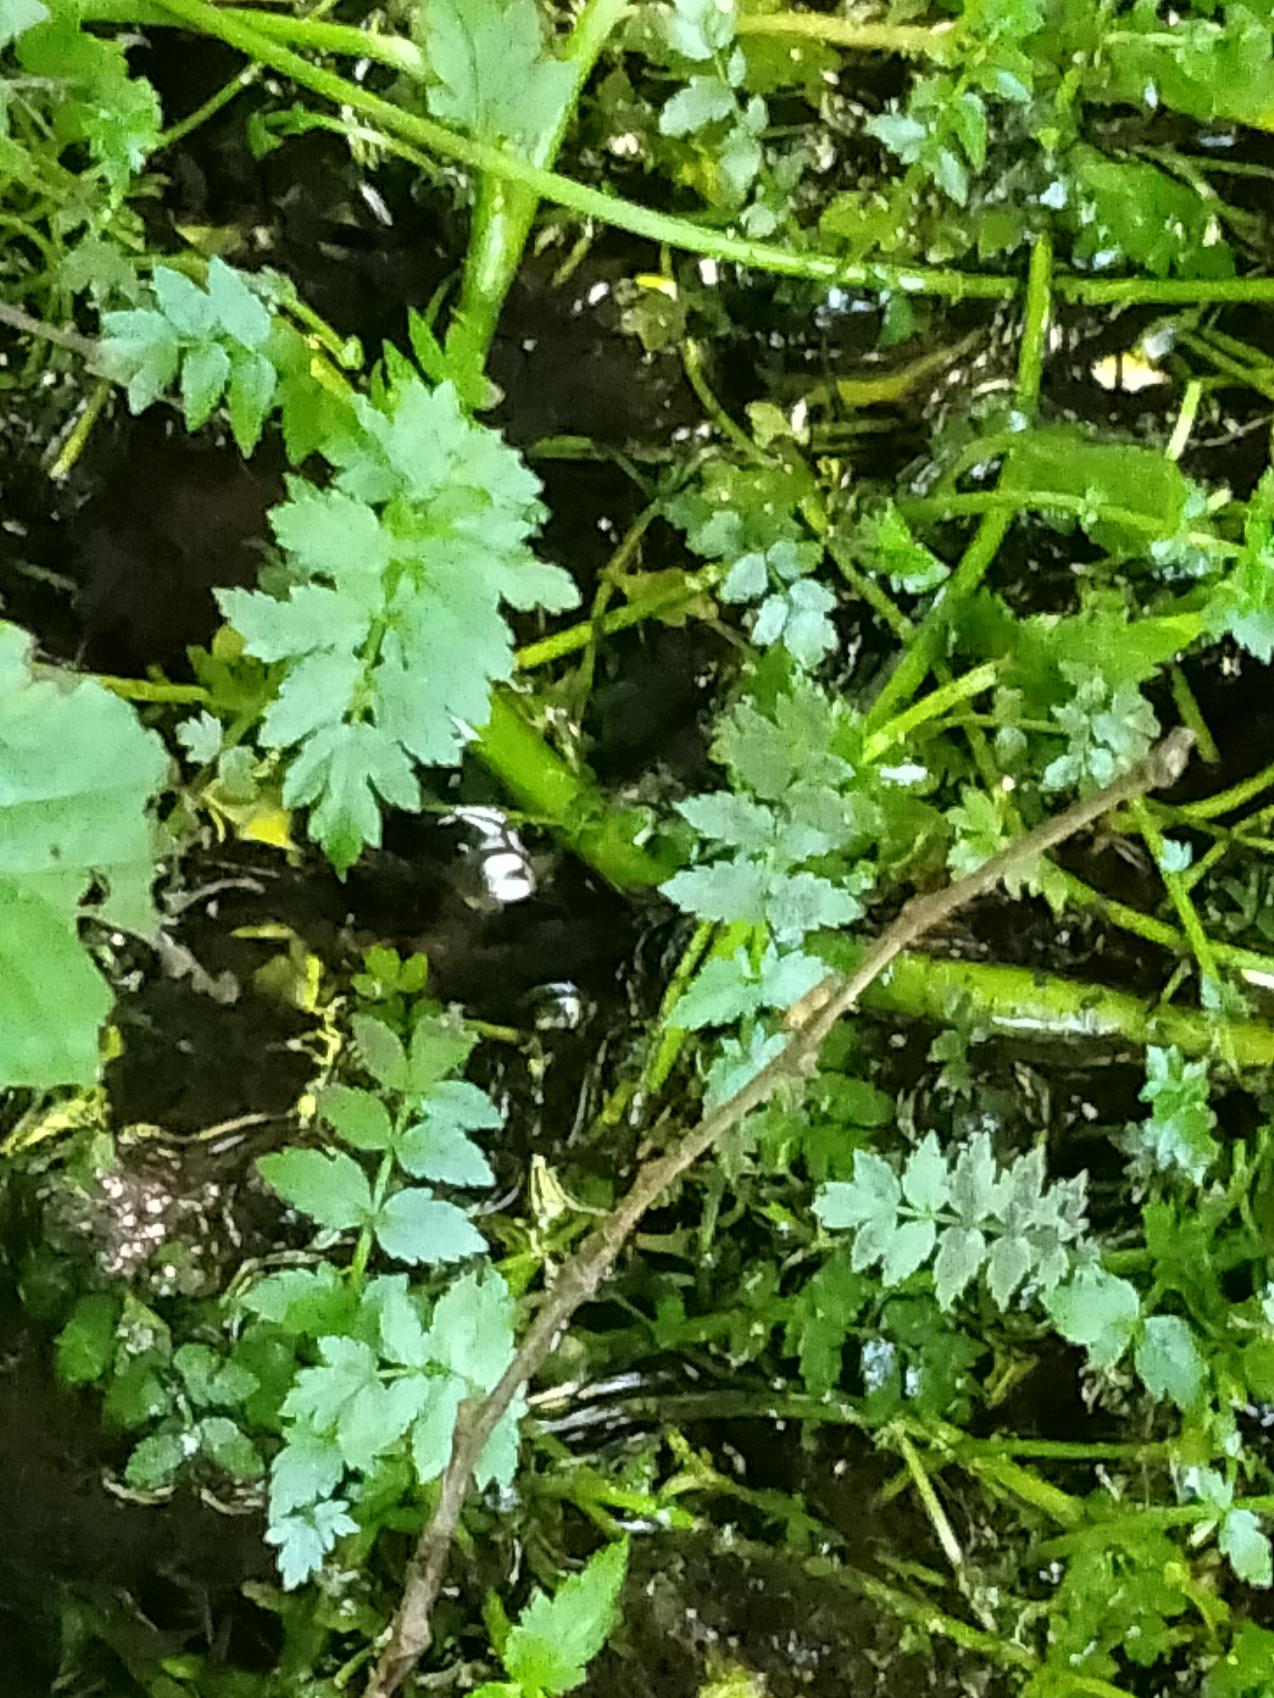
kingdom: Plantae
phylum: Tracheophyta
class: Magnoliopsida
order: Apiales
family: Apiaceae
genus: Berula
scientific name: Berula erecta
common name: Sideskærm
